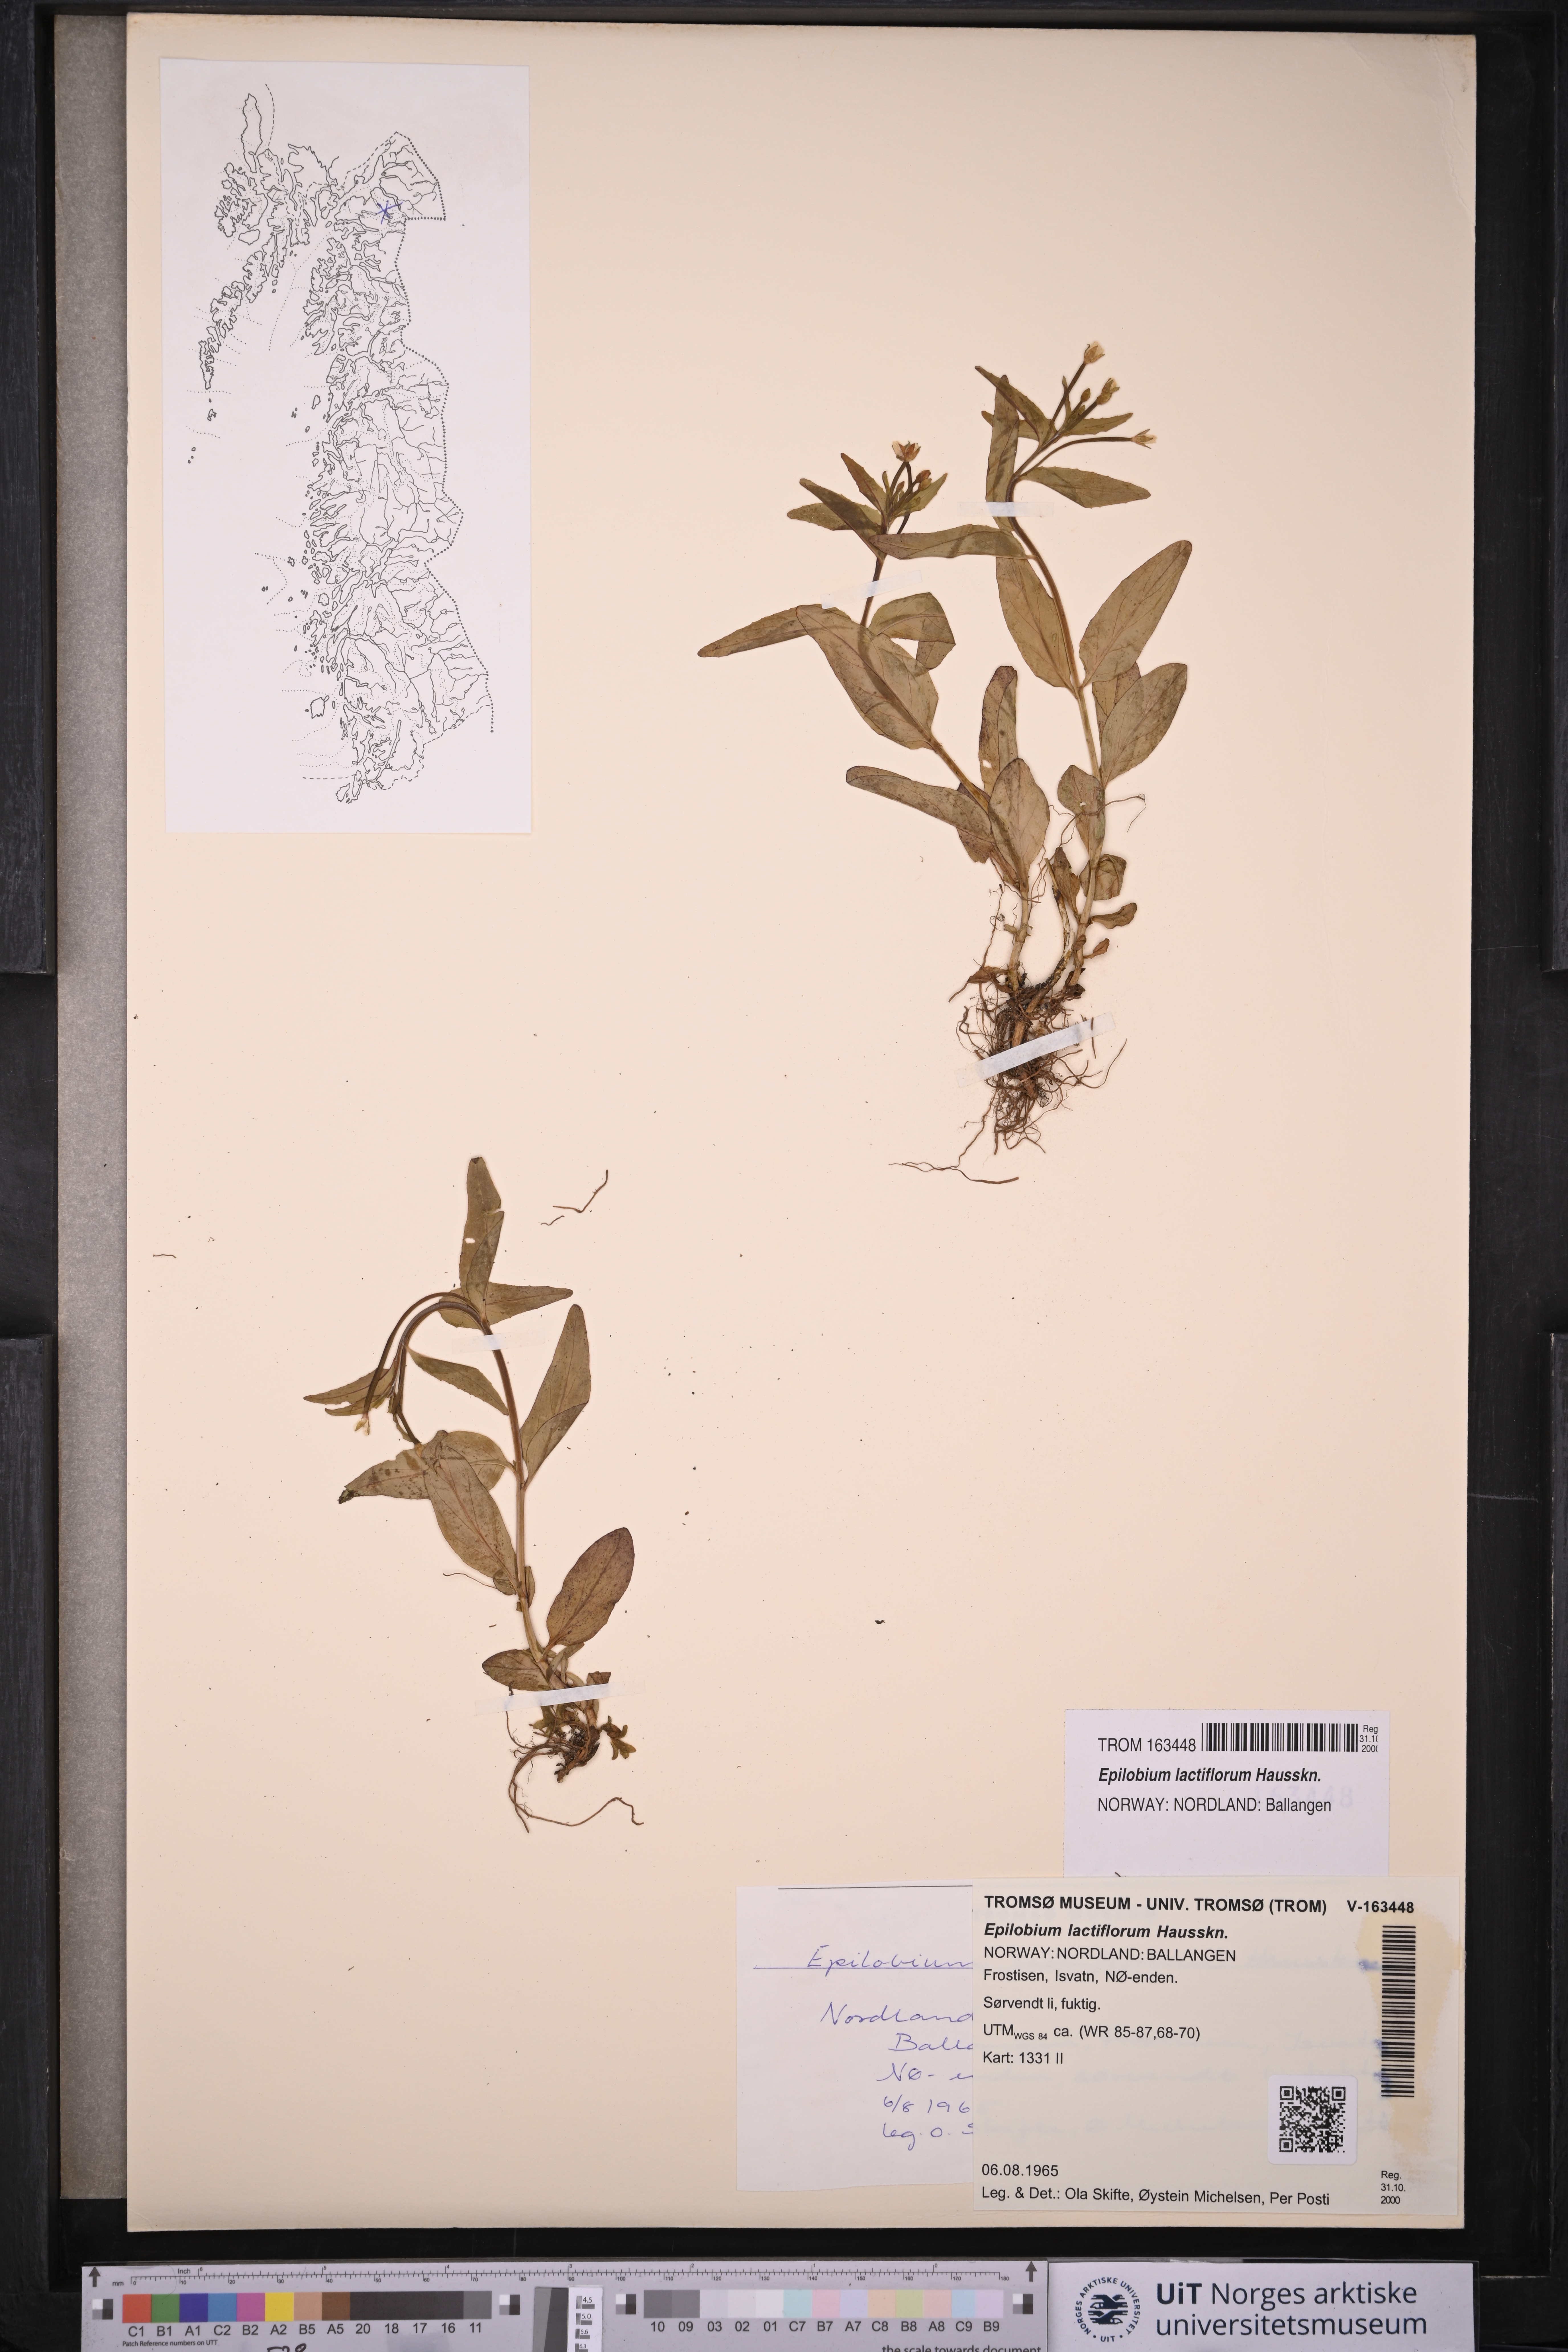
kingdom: Plantae
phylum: Tracheophyta
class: Magnoliopsida
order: Myrtales
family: Onagraceae
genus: Epilobium
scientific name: Epilobium lactiflorum
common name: Milkflower willowherb
